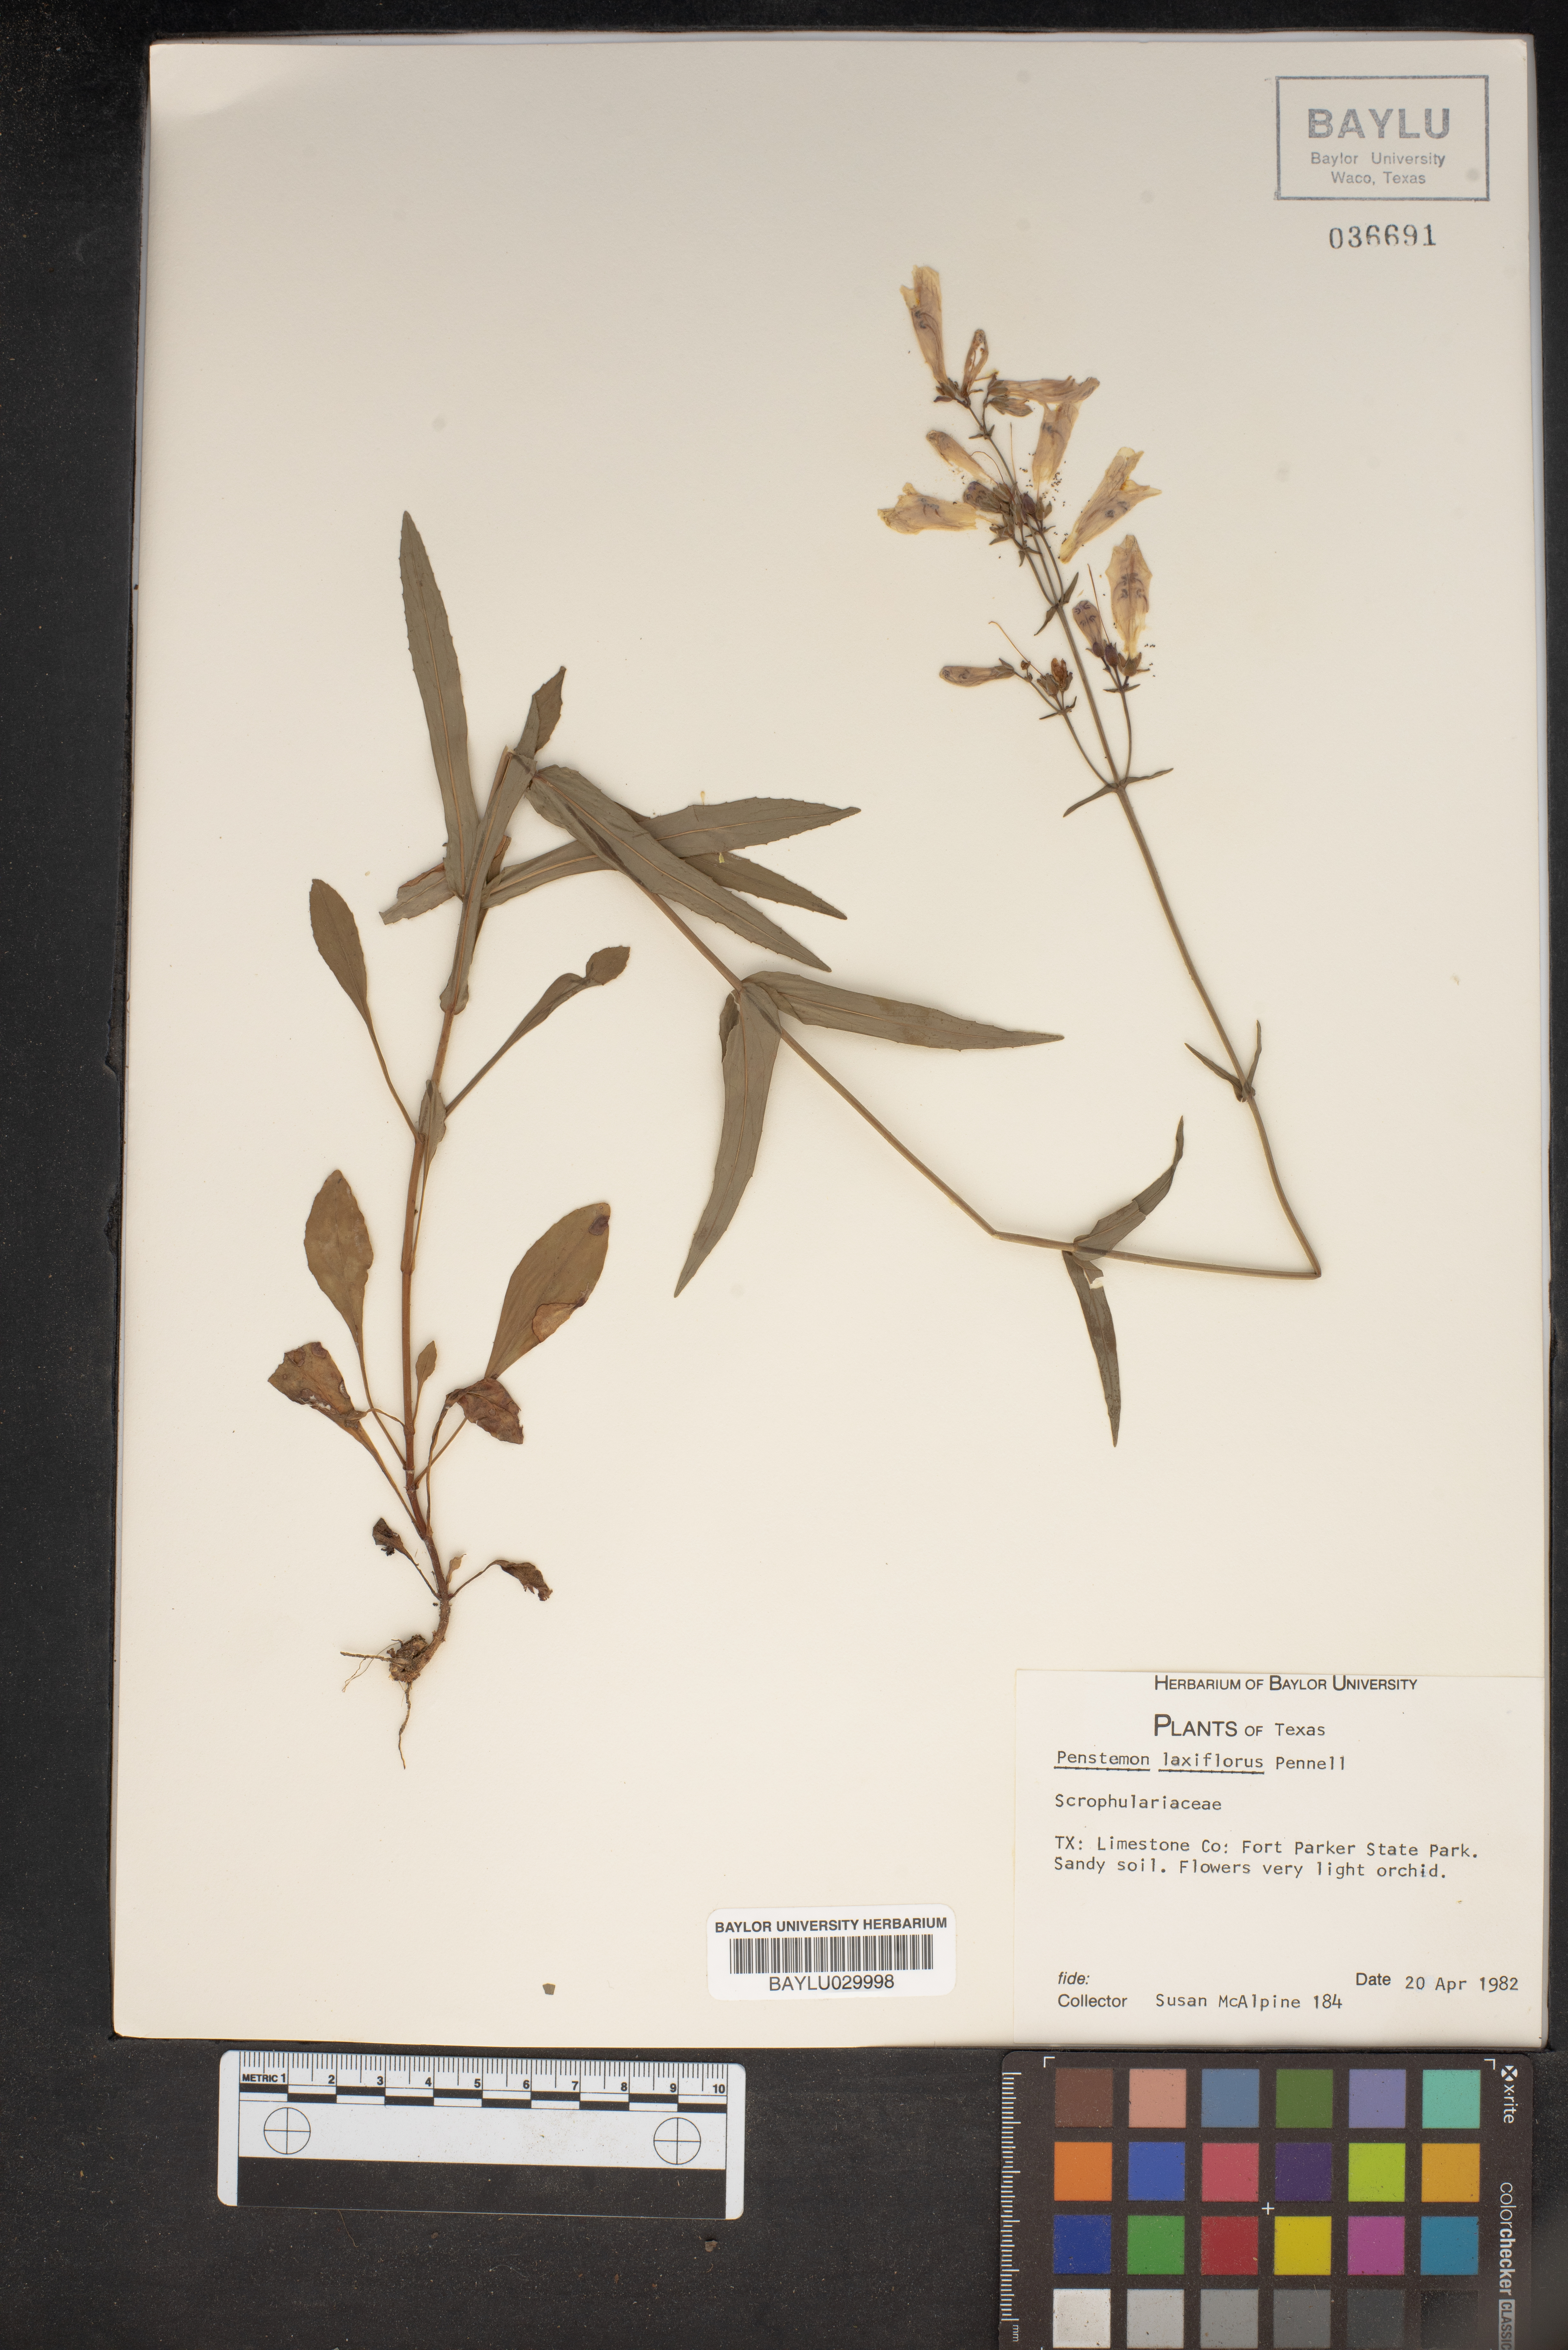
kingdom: Plantae
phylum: Tracheophyta
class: Magnoliopsida
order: Lamiales
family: Plantaginaceae
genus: Penstemon
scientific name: Penstemon laxiflorus
